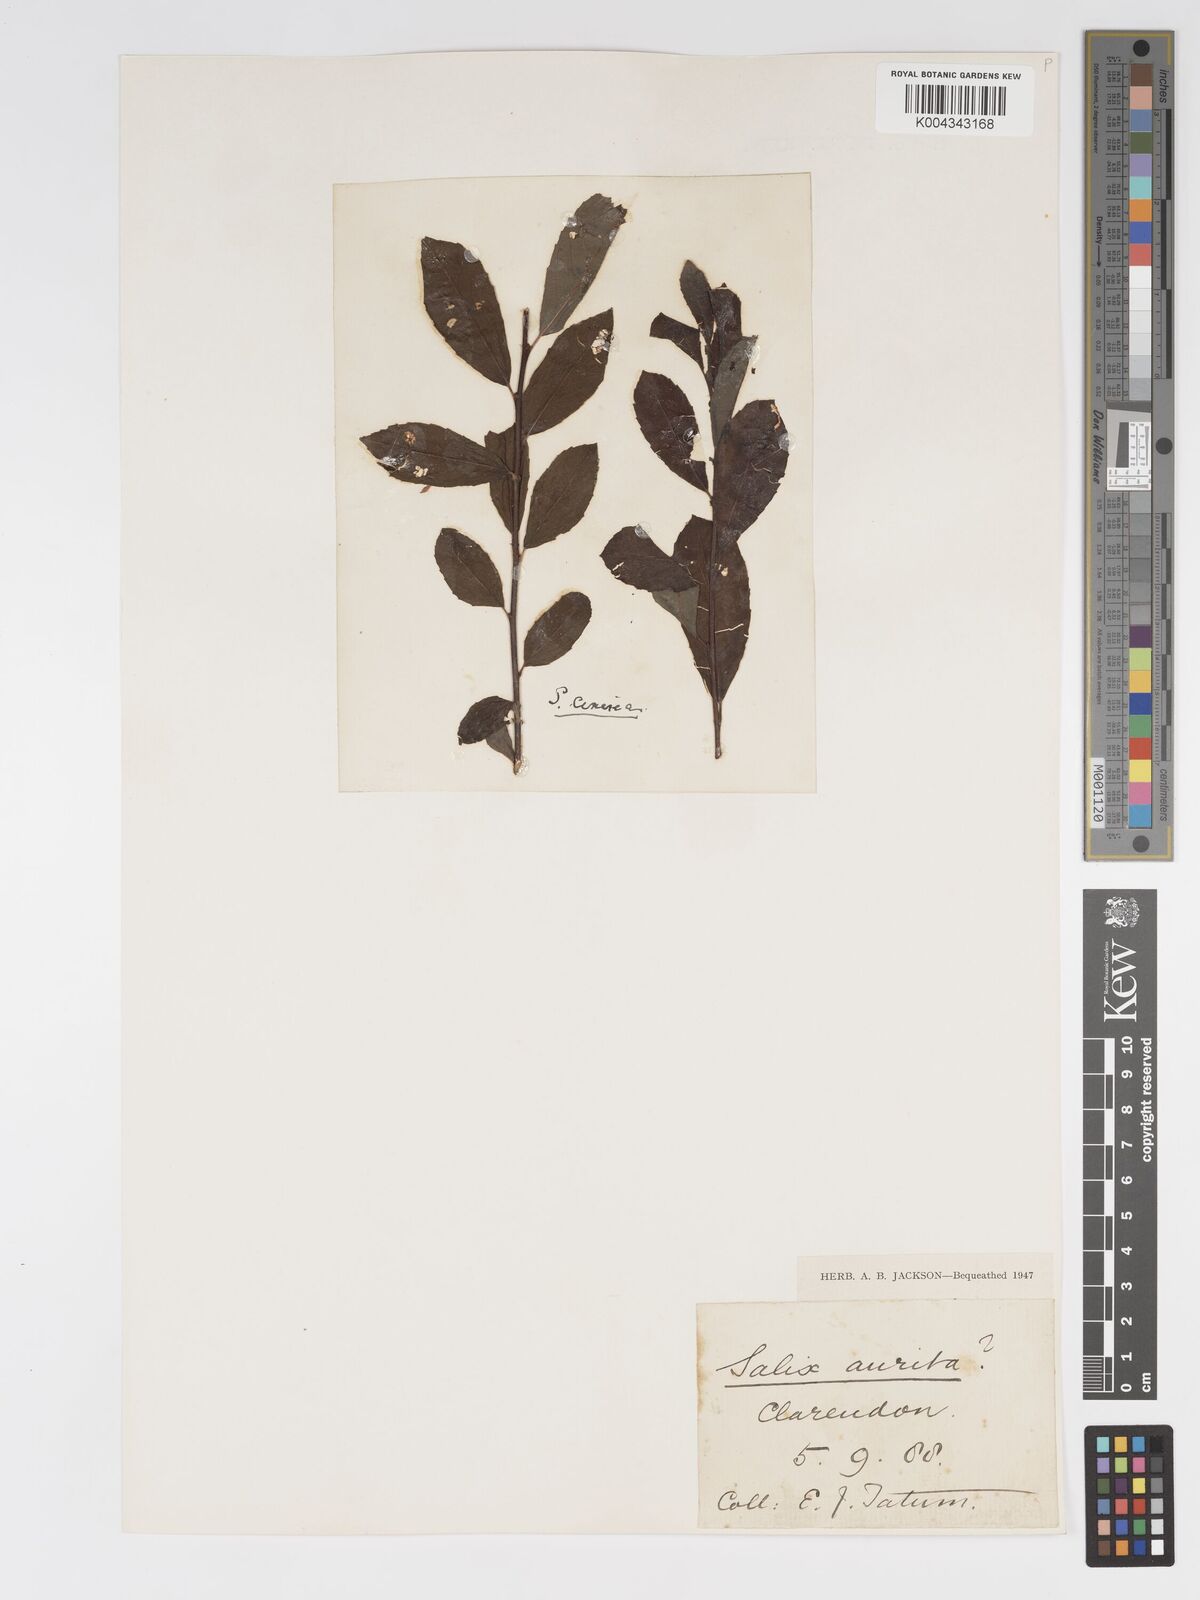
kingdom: Plantae
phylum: Tracheophyta
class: Magnoliopsida
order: Malpighiales
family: Salicaceae
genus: Salix
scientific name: Salix aurita
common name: Eared willow
